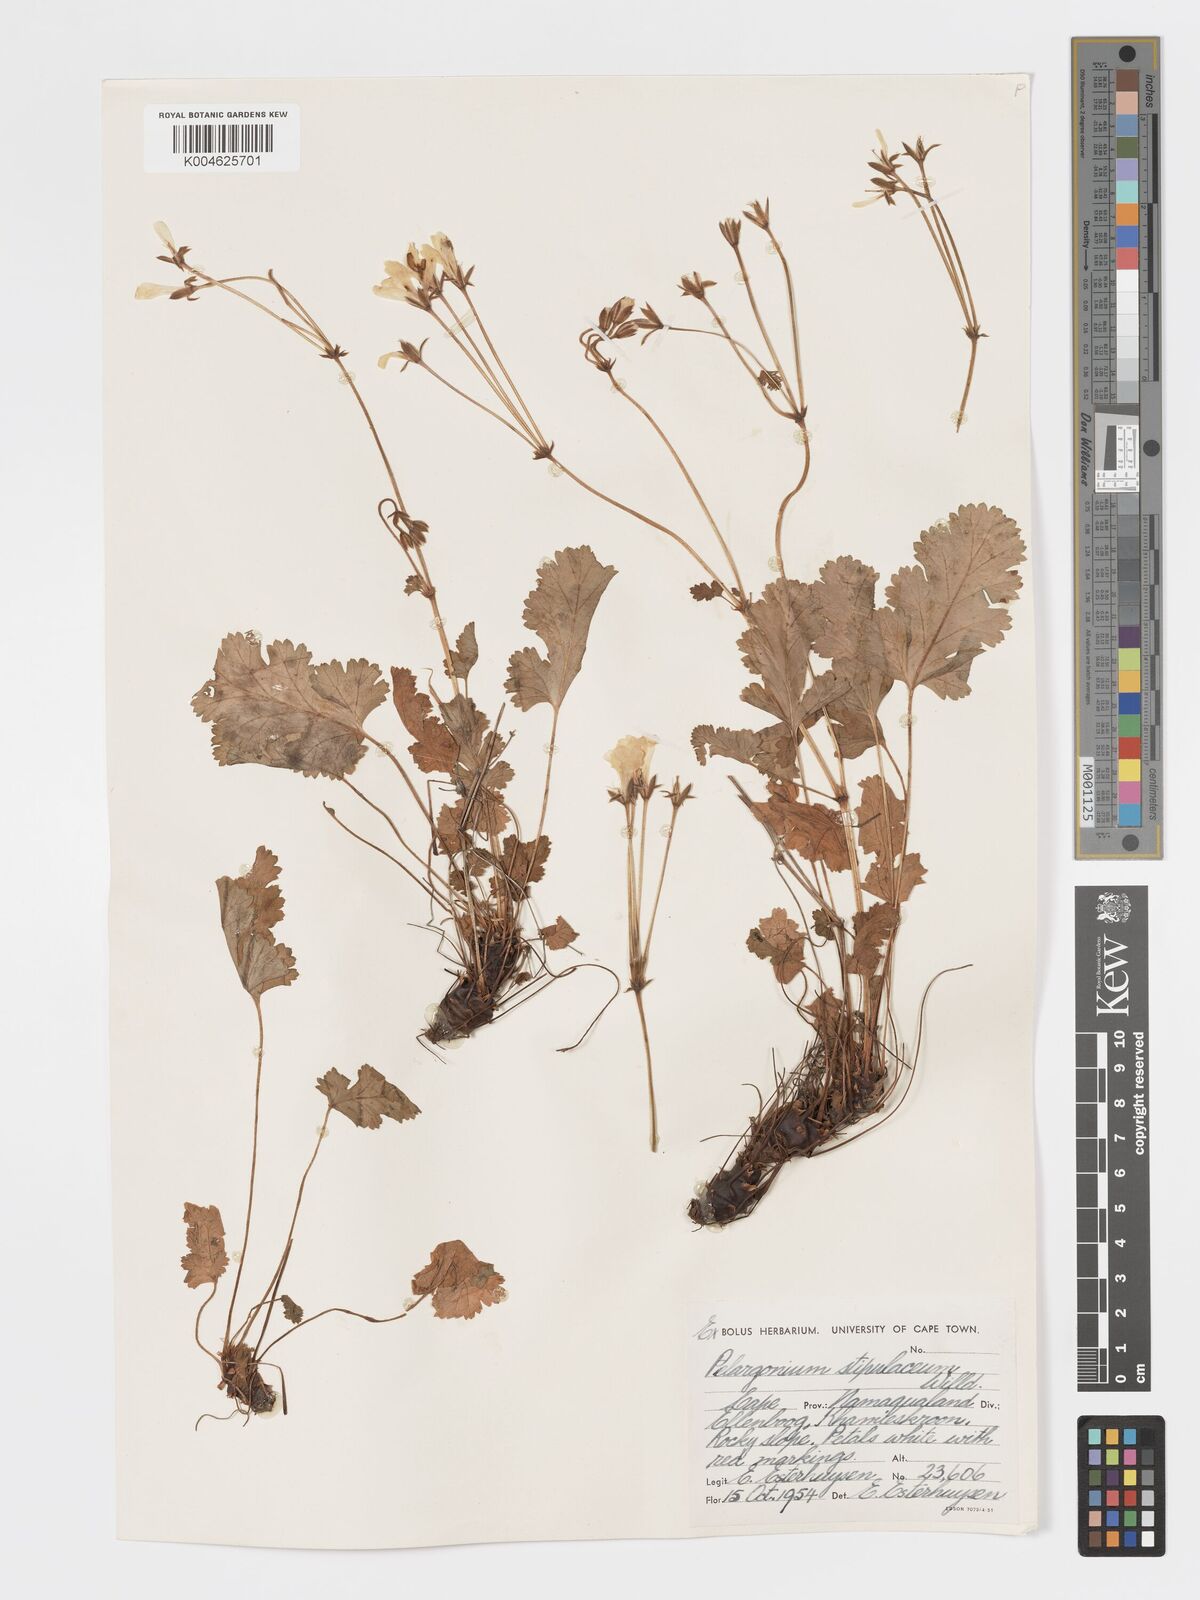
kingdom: Plantae
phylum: Tracheophyta
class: Magnoliopsida
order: Geraniales
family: Geraniaceae
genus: Pelargonium
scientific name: Pelargonium stipulaceum
